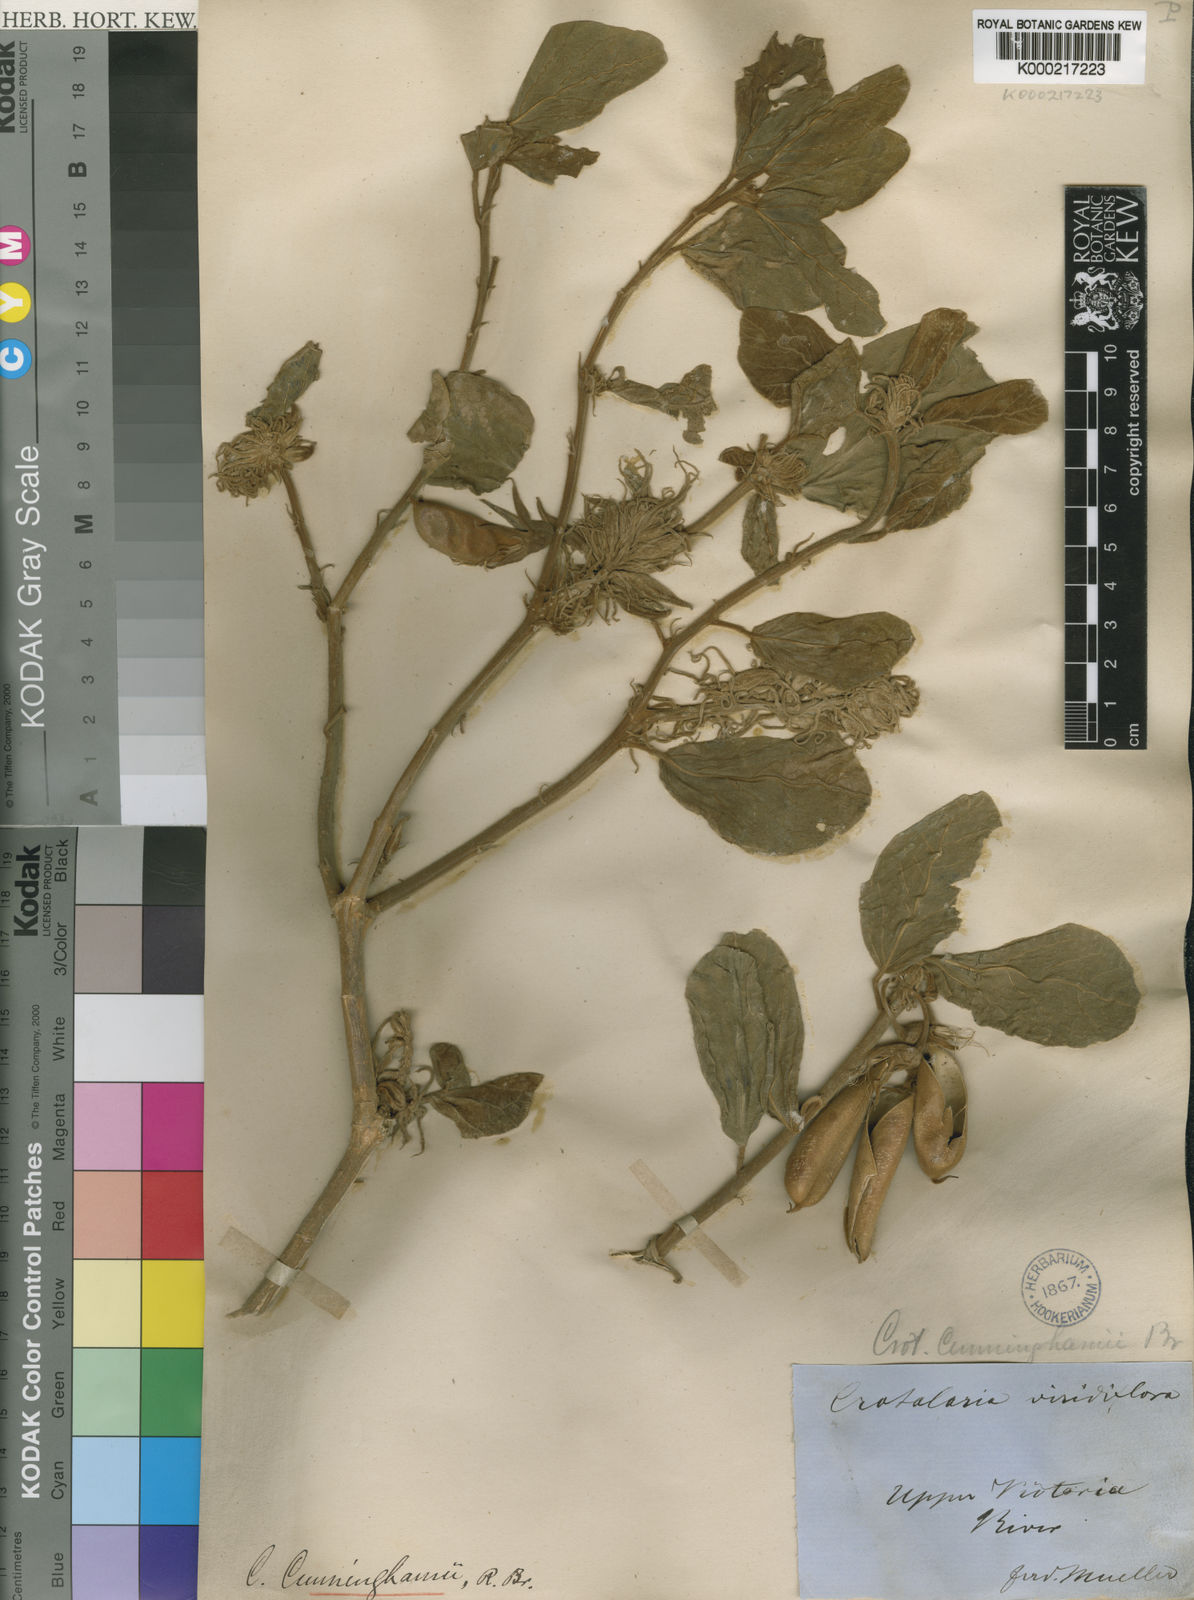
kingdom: Plantae
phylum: Tracheophyta
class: Magnoliopsida
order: Fabales
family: Fabaceae
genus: Crotalaria
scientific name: Crotalaria cunninghamii
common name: Birdflower rattlepod
